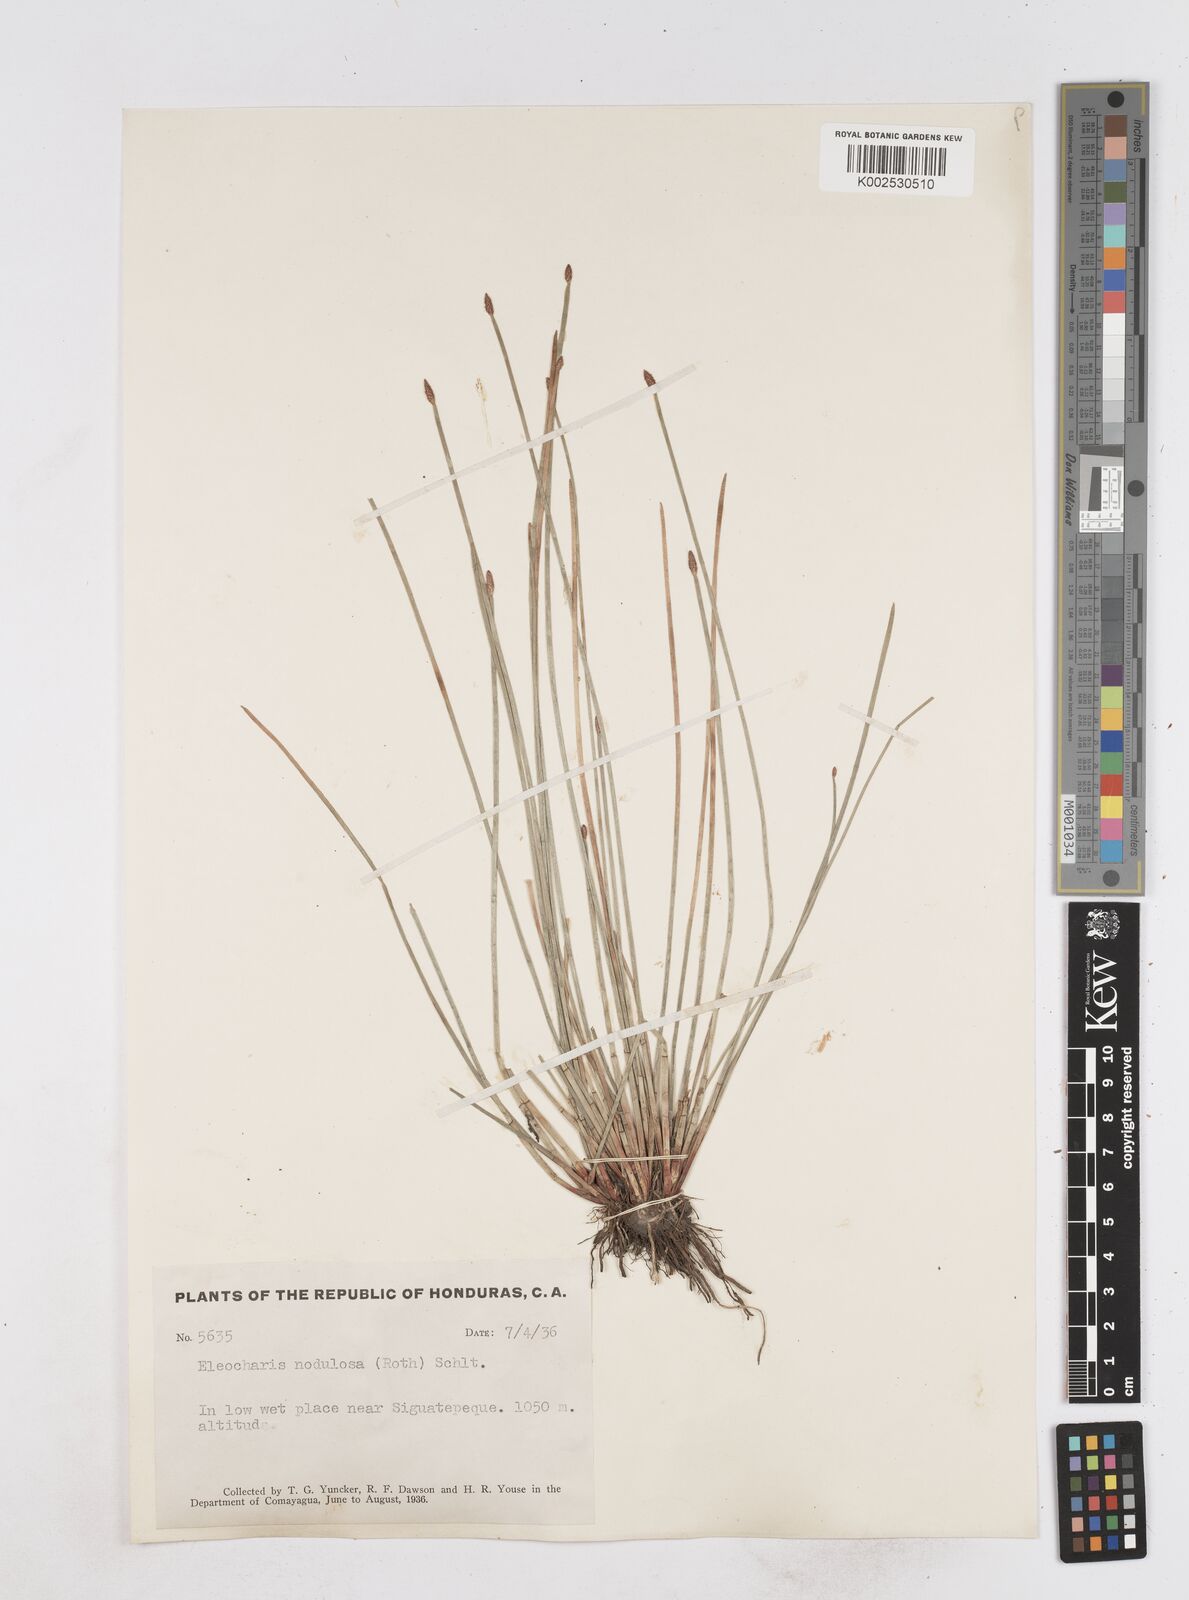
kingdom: Plantae
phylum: Tracheophyta
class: Liliopsida
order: Poales
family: Cyperaceae
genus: Eleocharis
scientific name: Eleocharis montana
